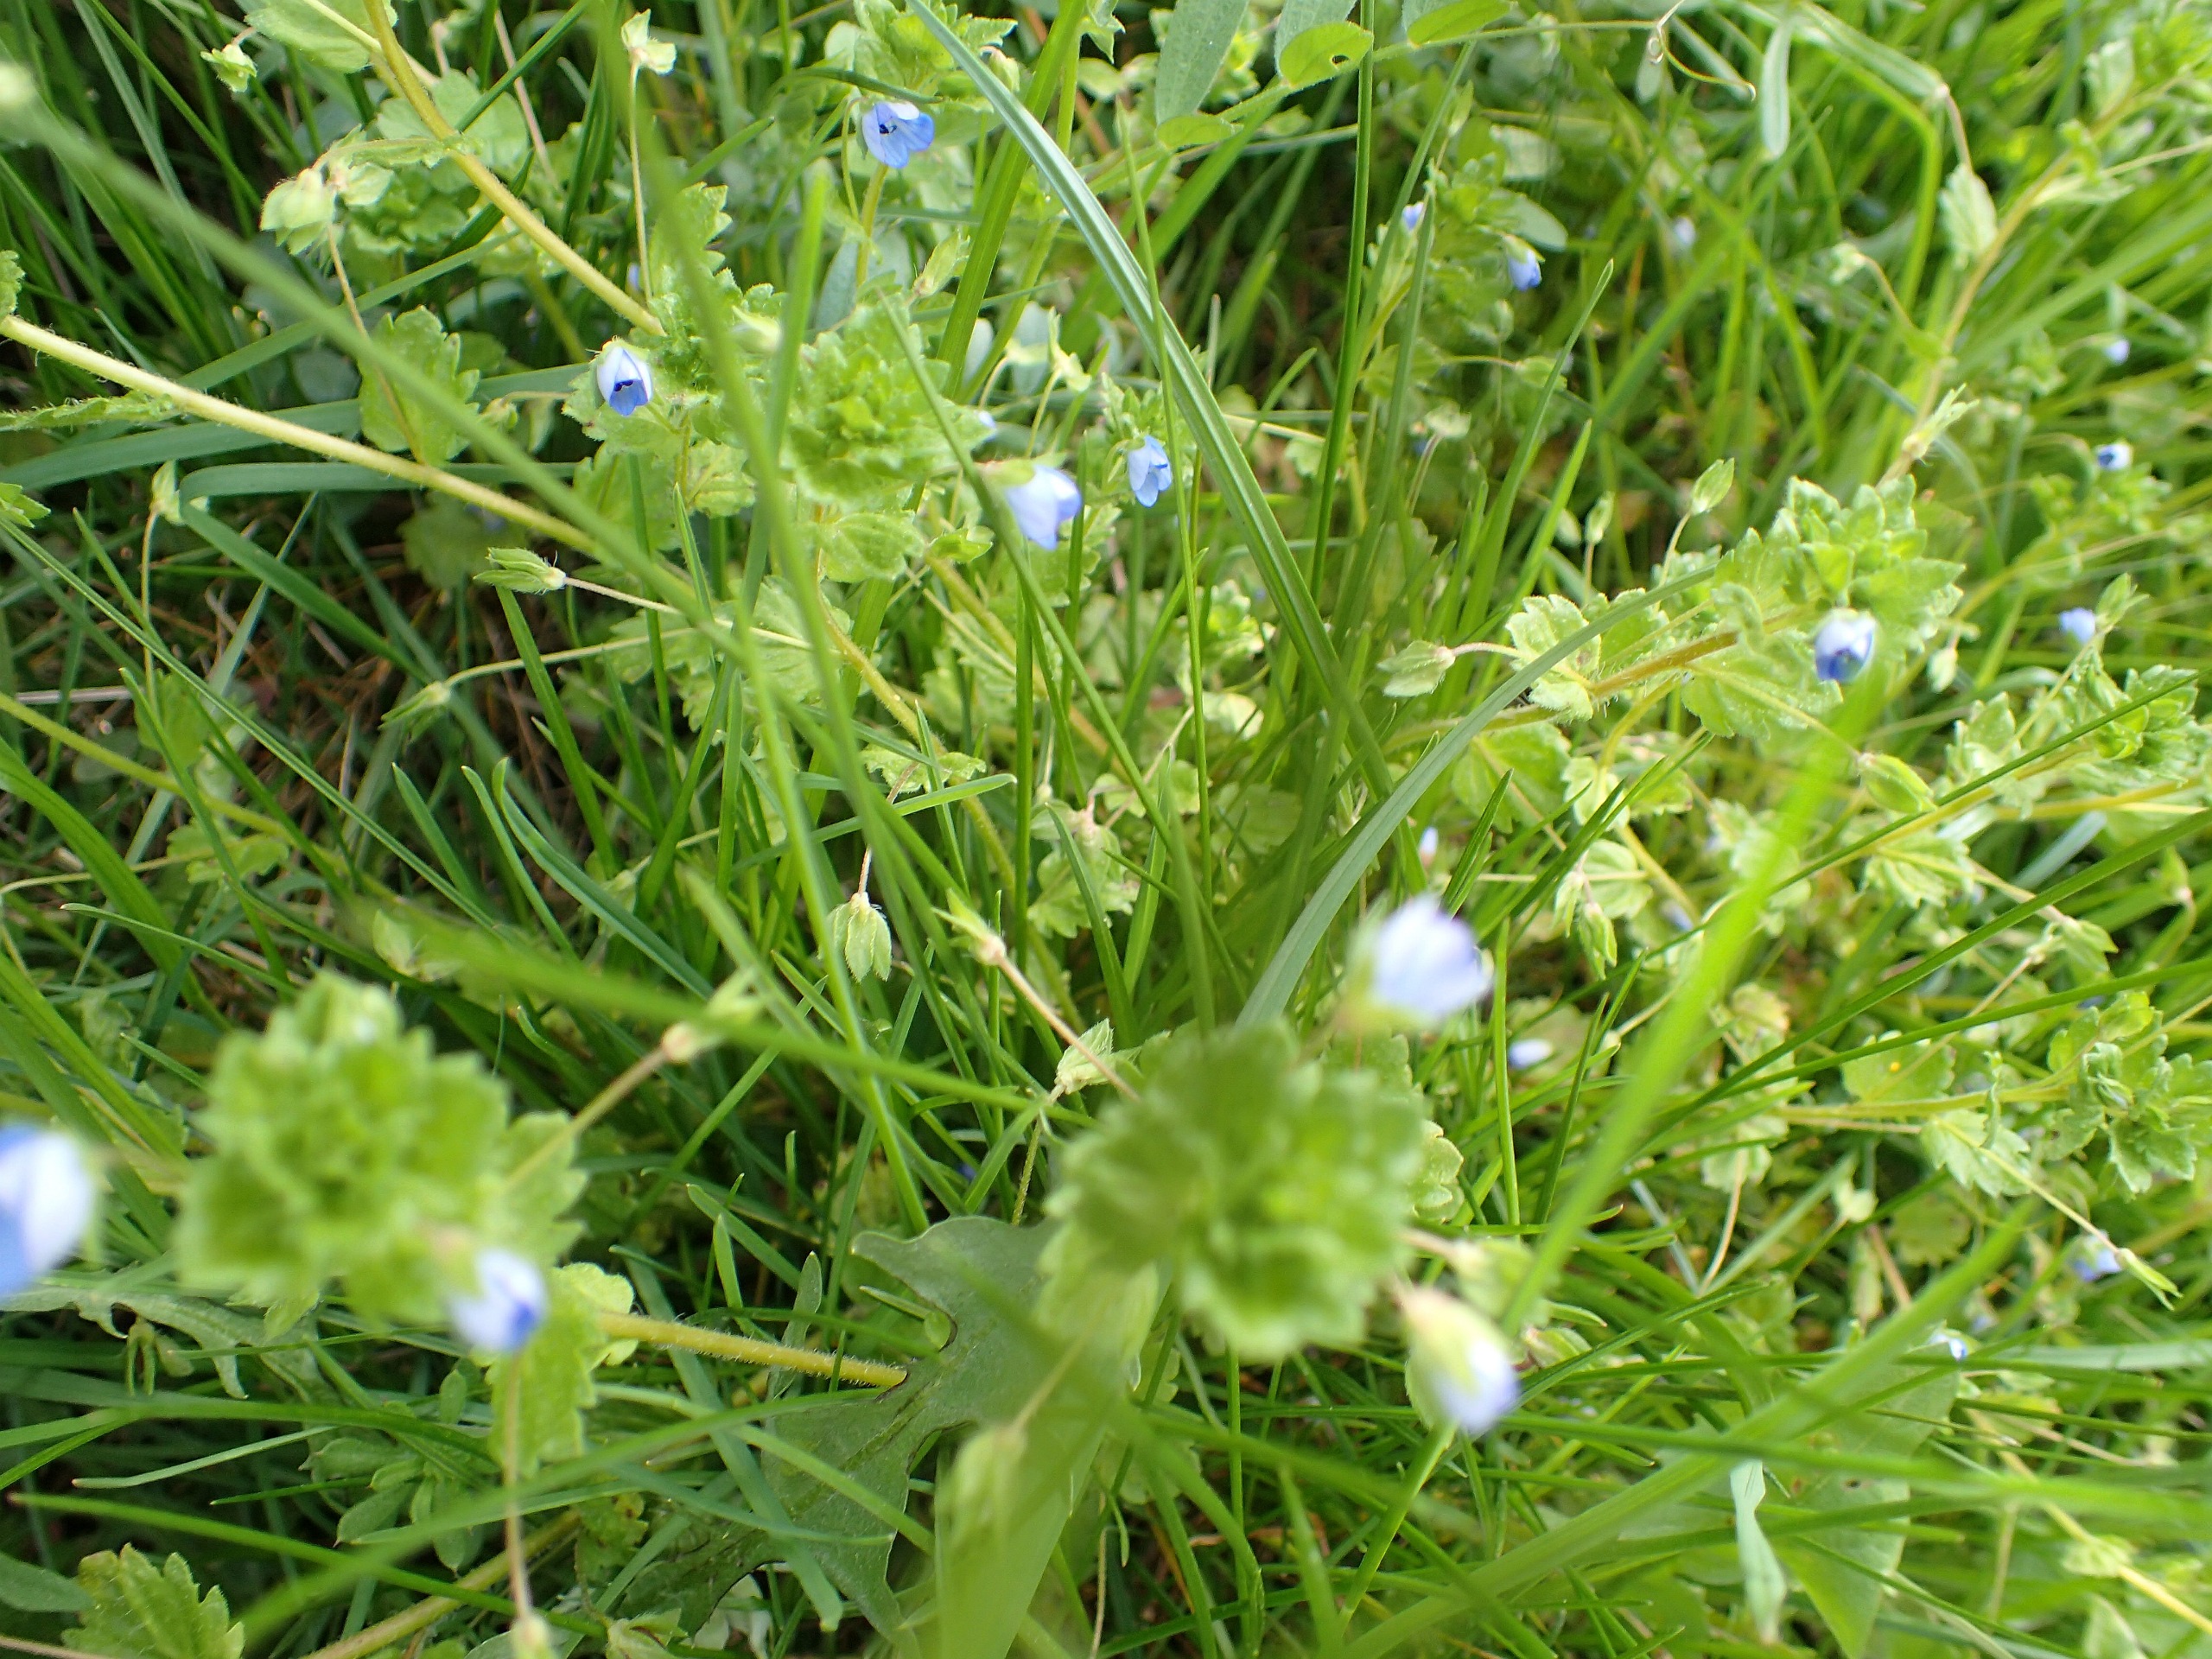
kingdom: Plantae
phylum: Tracheophyta
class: Magnoliopsida
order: Lamiales
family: Plantaginaceae
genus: Veronica
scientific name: Veronica filiformis
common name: Tråd-ærenpris
